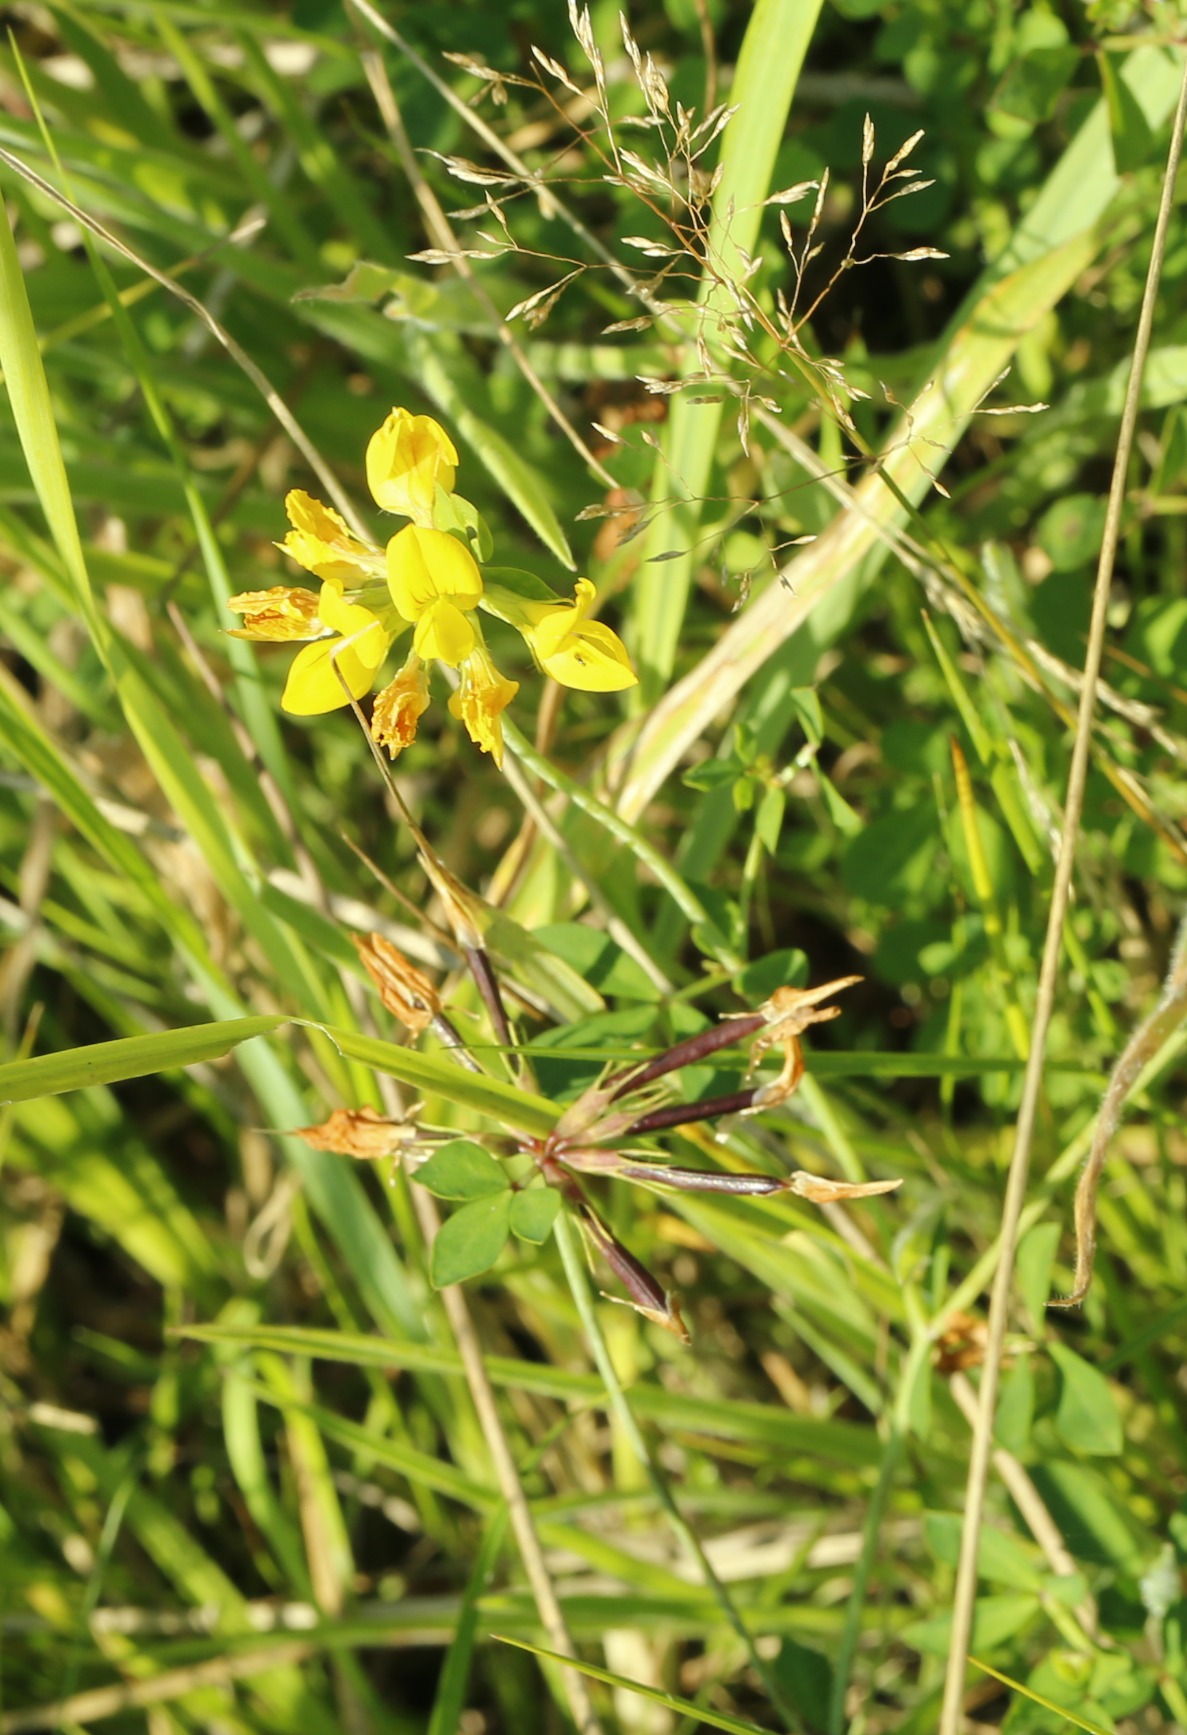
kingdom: Plantae
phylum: Tracheophyta
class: Magnoliopsida
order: Fabales
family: Fabaceae
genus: Lotus
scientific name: Lotus corniculatus
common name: Almindelig kællingetand
